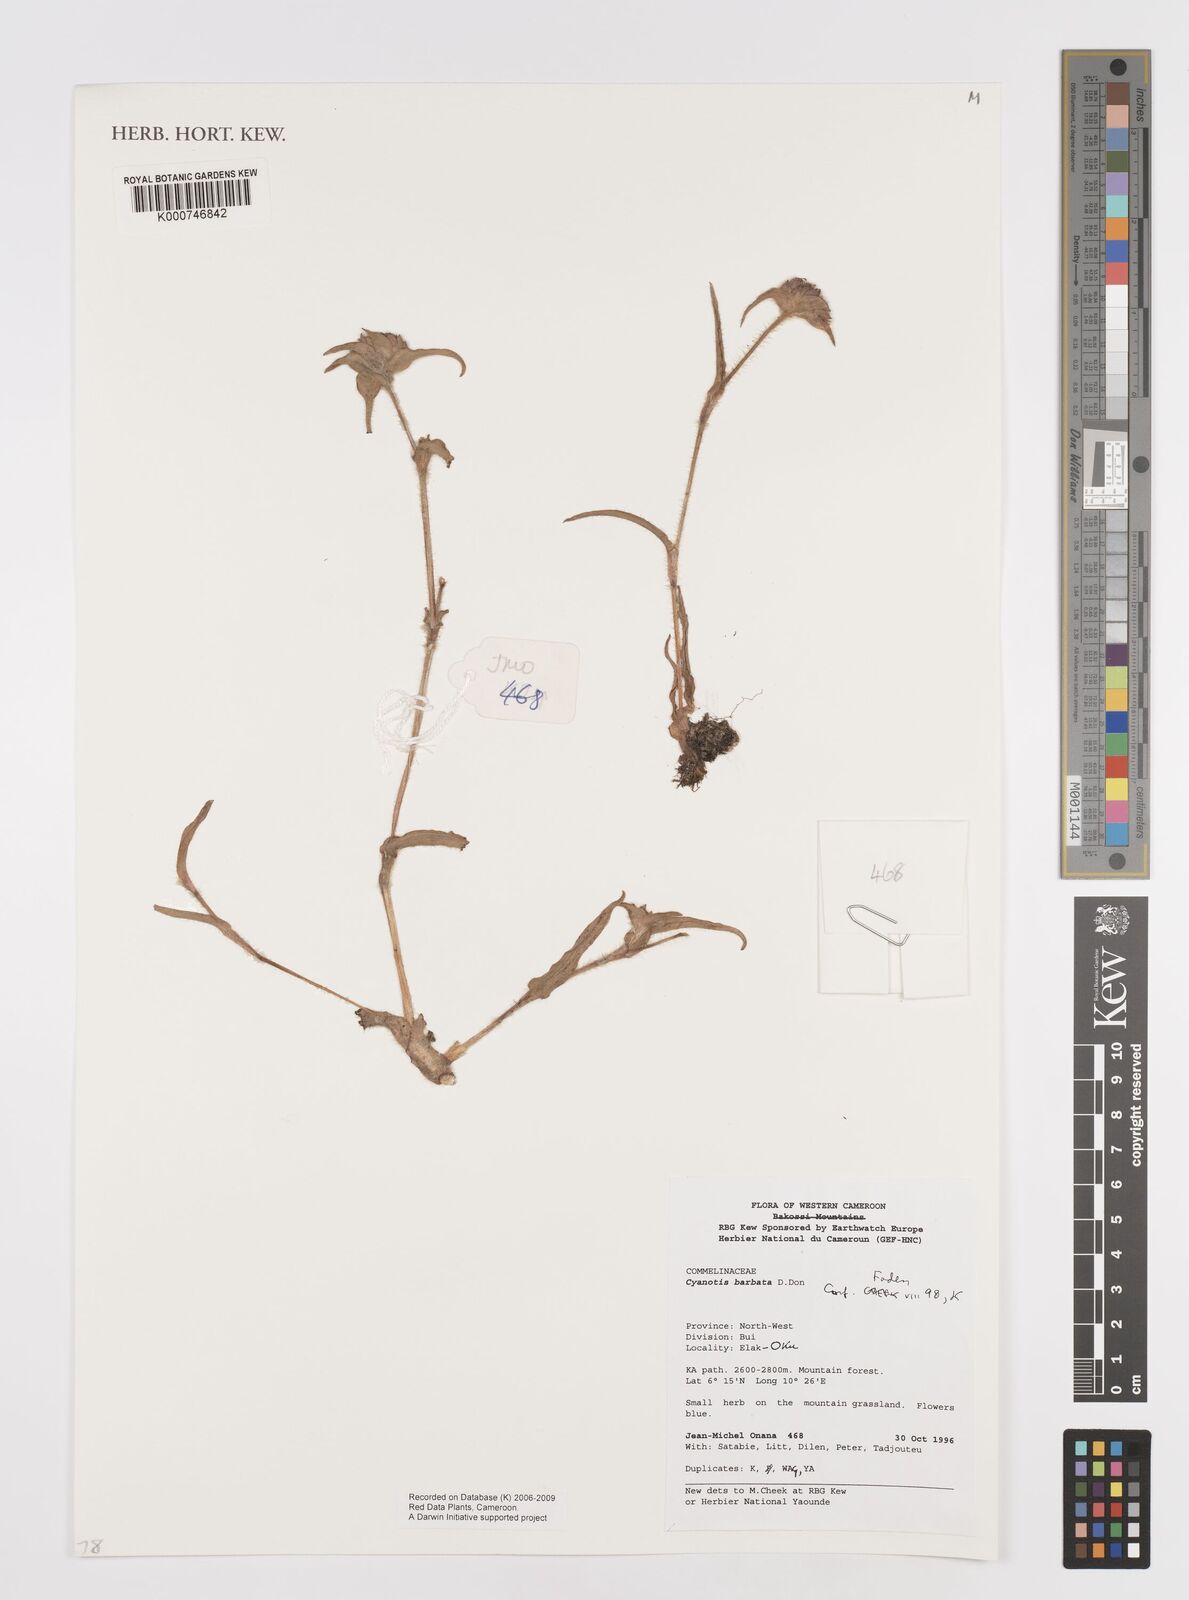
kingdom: Plantae
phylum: Tracheophyta
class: Liliopsida
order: Commelinales
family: Commelinaceae
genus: Cyanotis
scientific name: Cyanotis vaga
